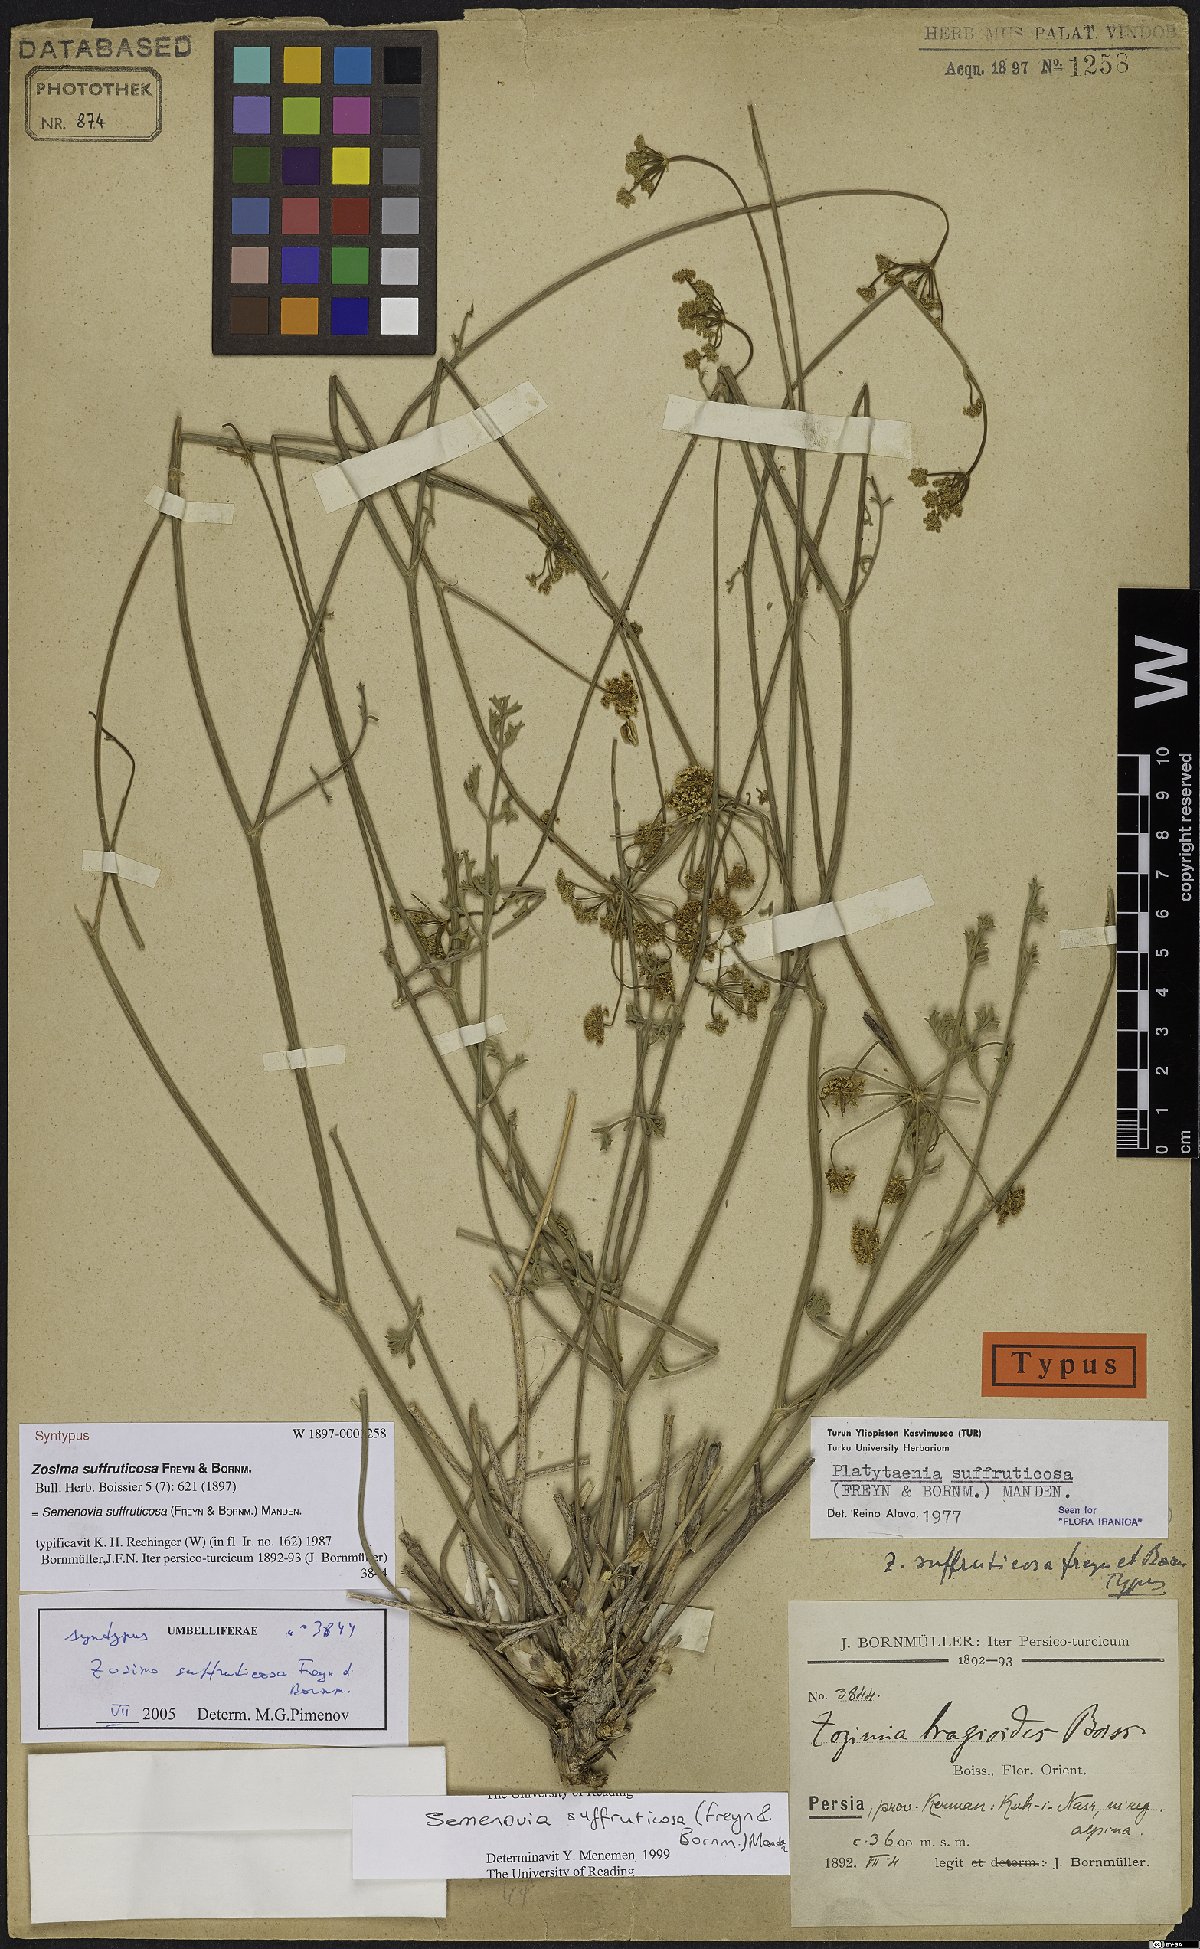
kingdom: Plantae
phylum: Tracheophyta
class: Magnoliopsida
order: Apiales
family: Apiaceae
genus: Semenovia
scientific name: Semenovia suffruticosa
